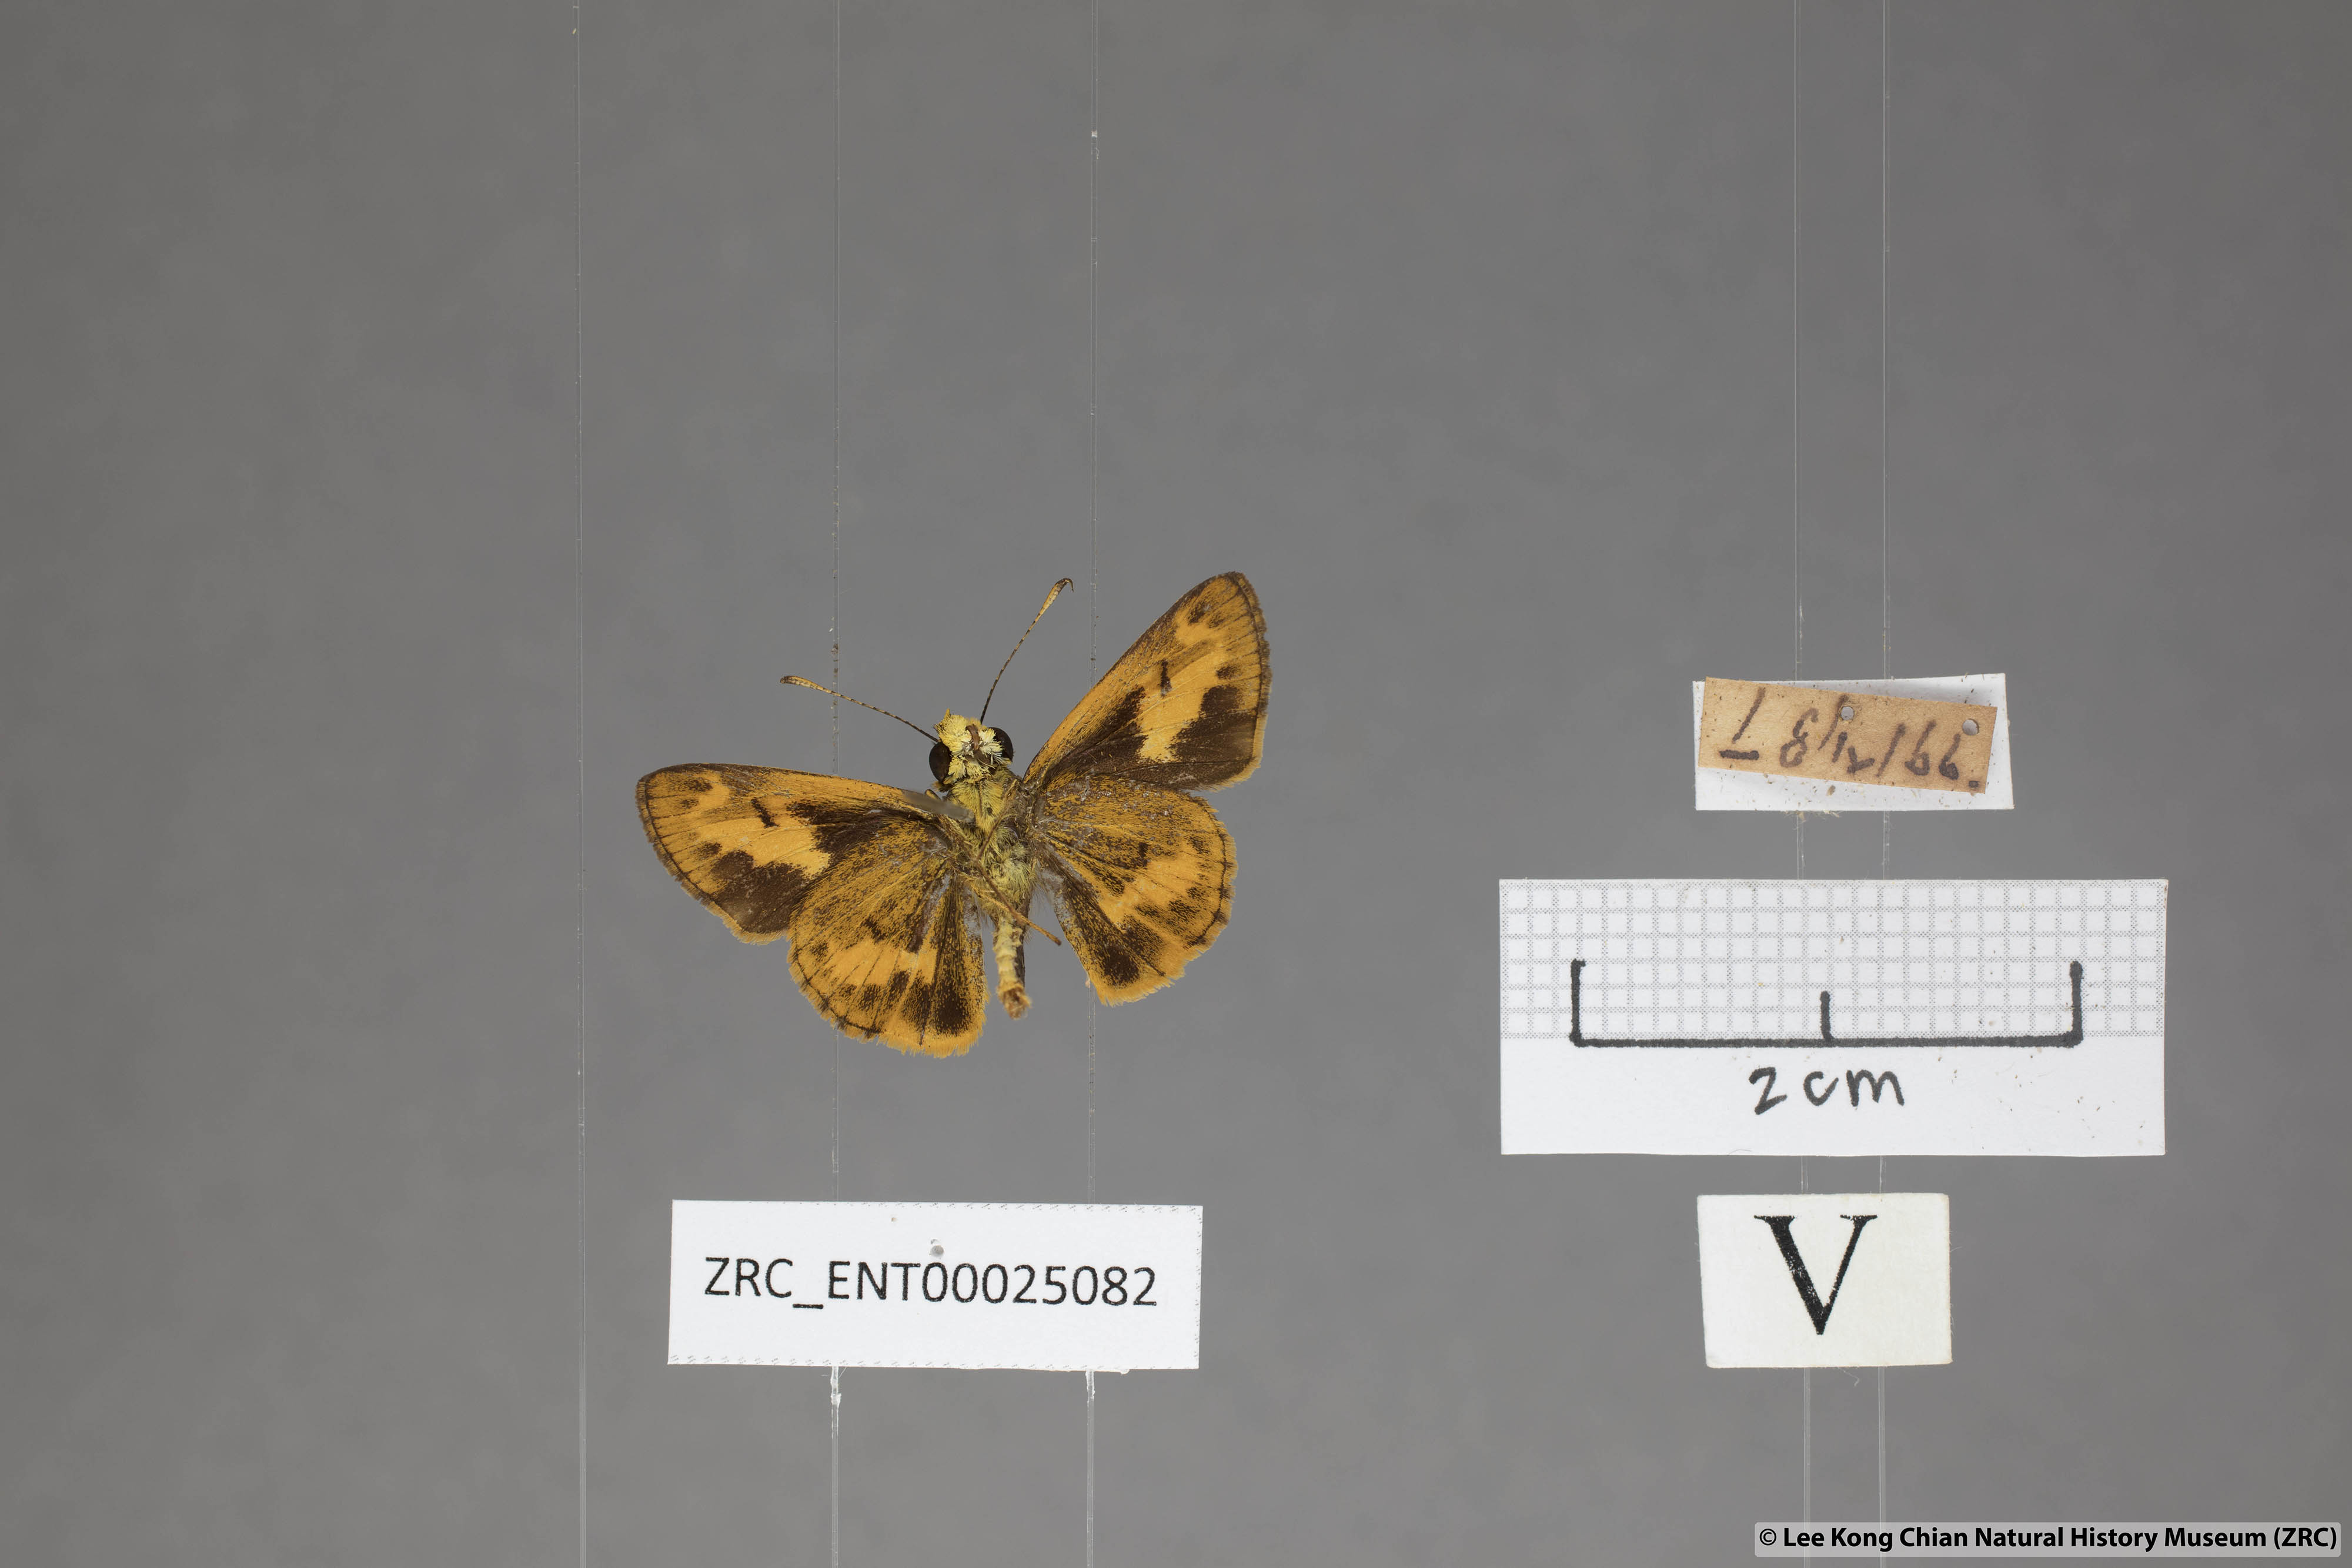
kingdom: Animalia
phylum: Arthropoda
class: Insecta
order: Lepidoptera
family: Hesperiidae
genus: Oriens
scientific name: Oriens gola
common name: Common dartlet
